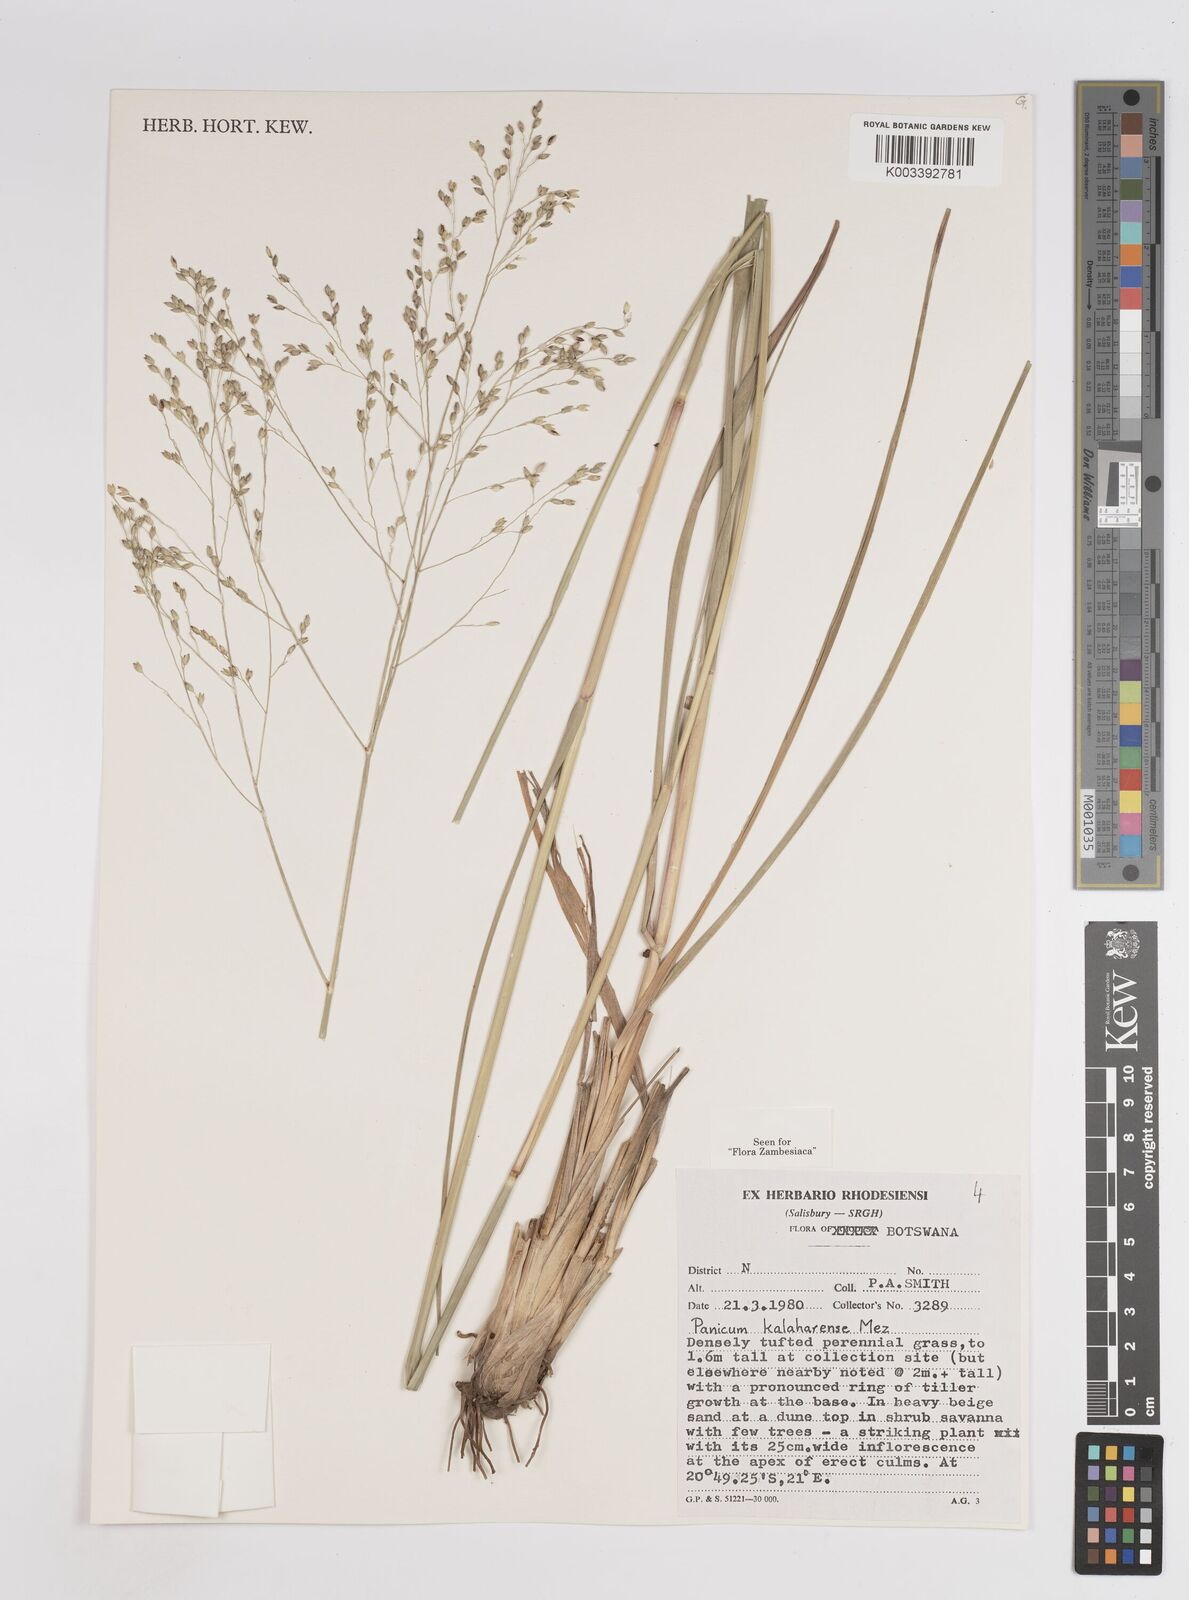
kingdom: Plantae
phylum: Tracheophyta
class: Liliopsida
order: Poales
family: Poaceae
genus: Panicum
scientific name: Panicum kalaharense
